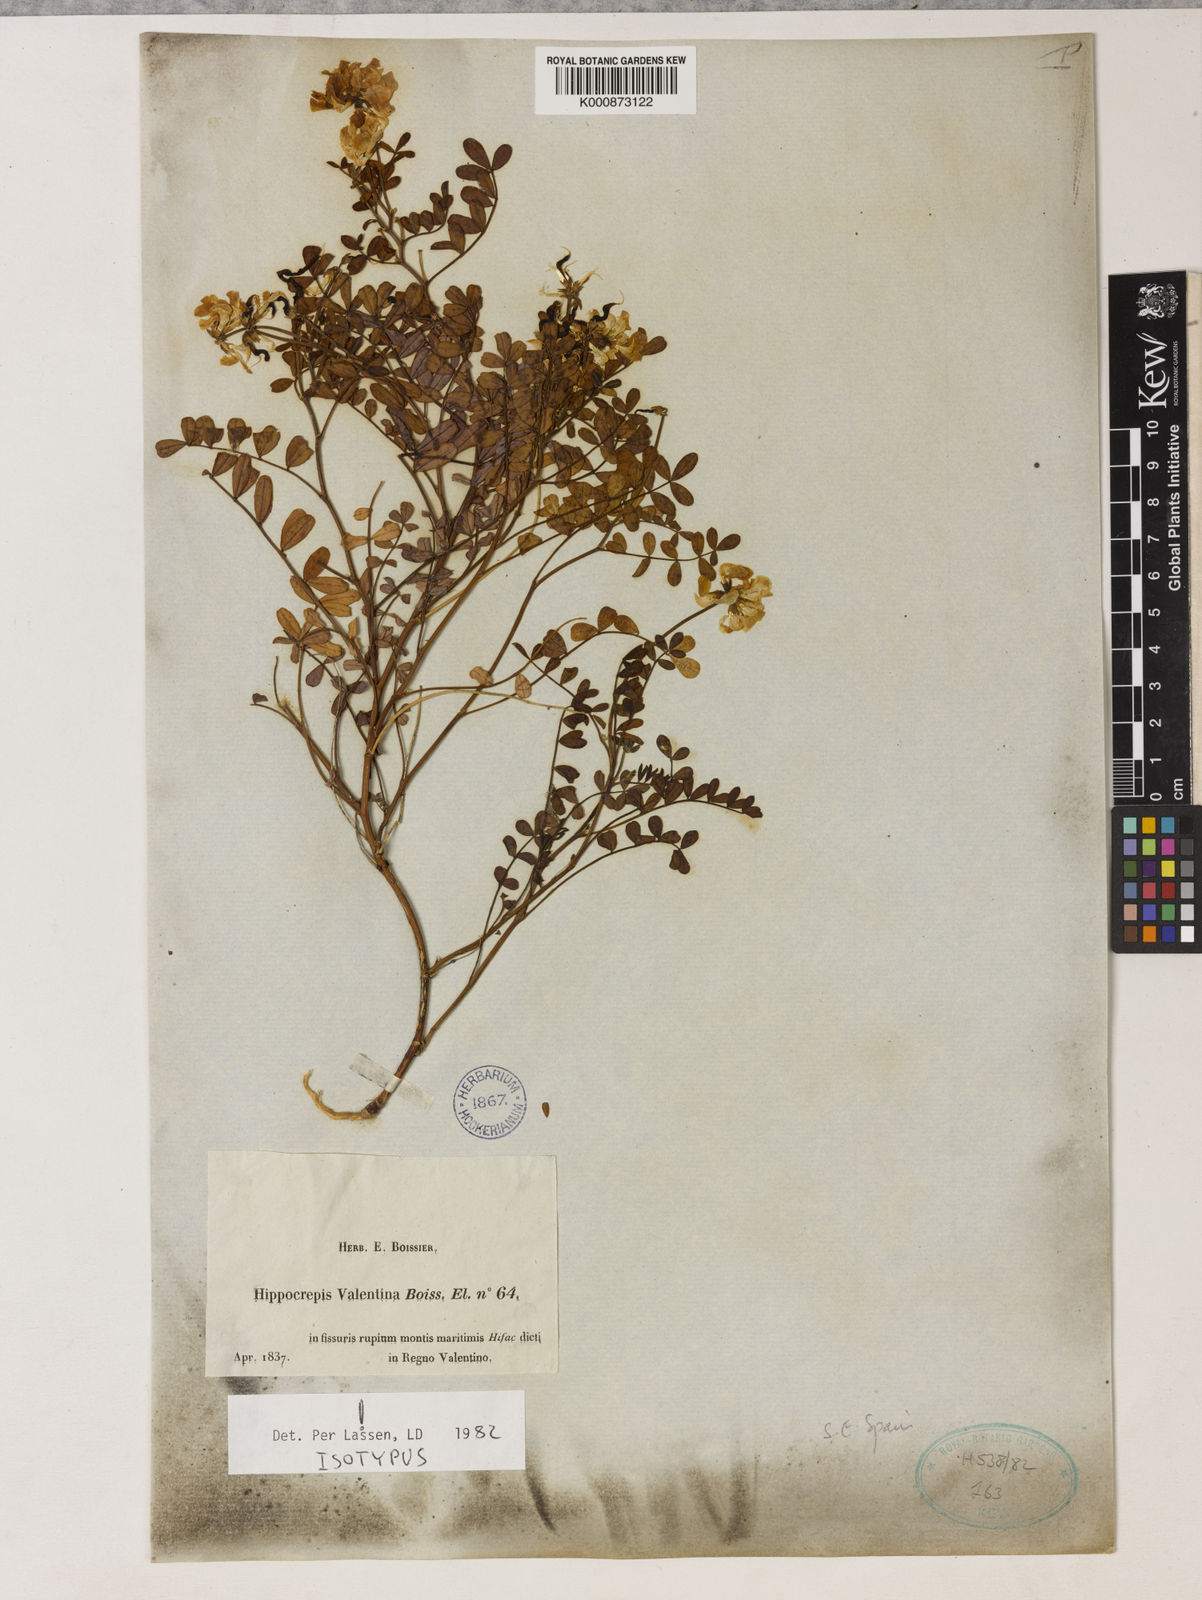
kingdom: Plantae
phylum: Tracheophyta
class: Magnoliopsida
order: Fabales
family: Fabaceae
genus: Hippocrepis
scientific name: Hippocrepis valentina
